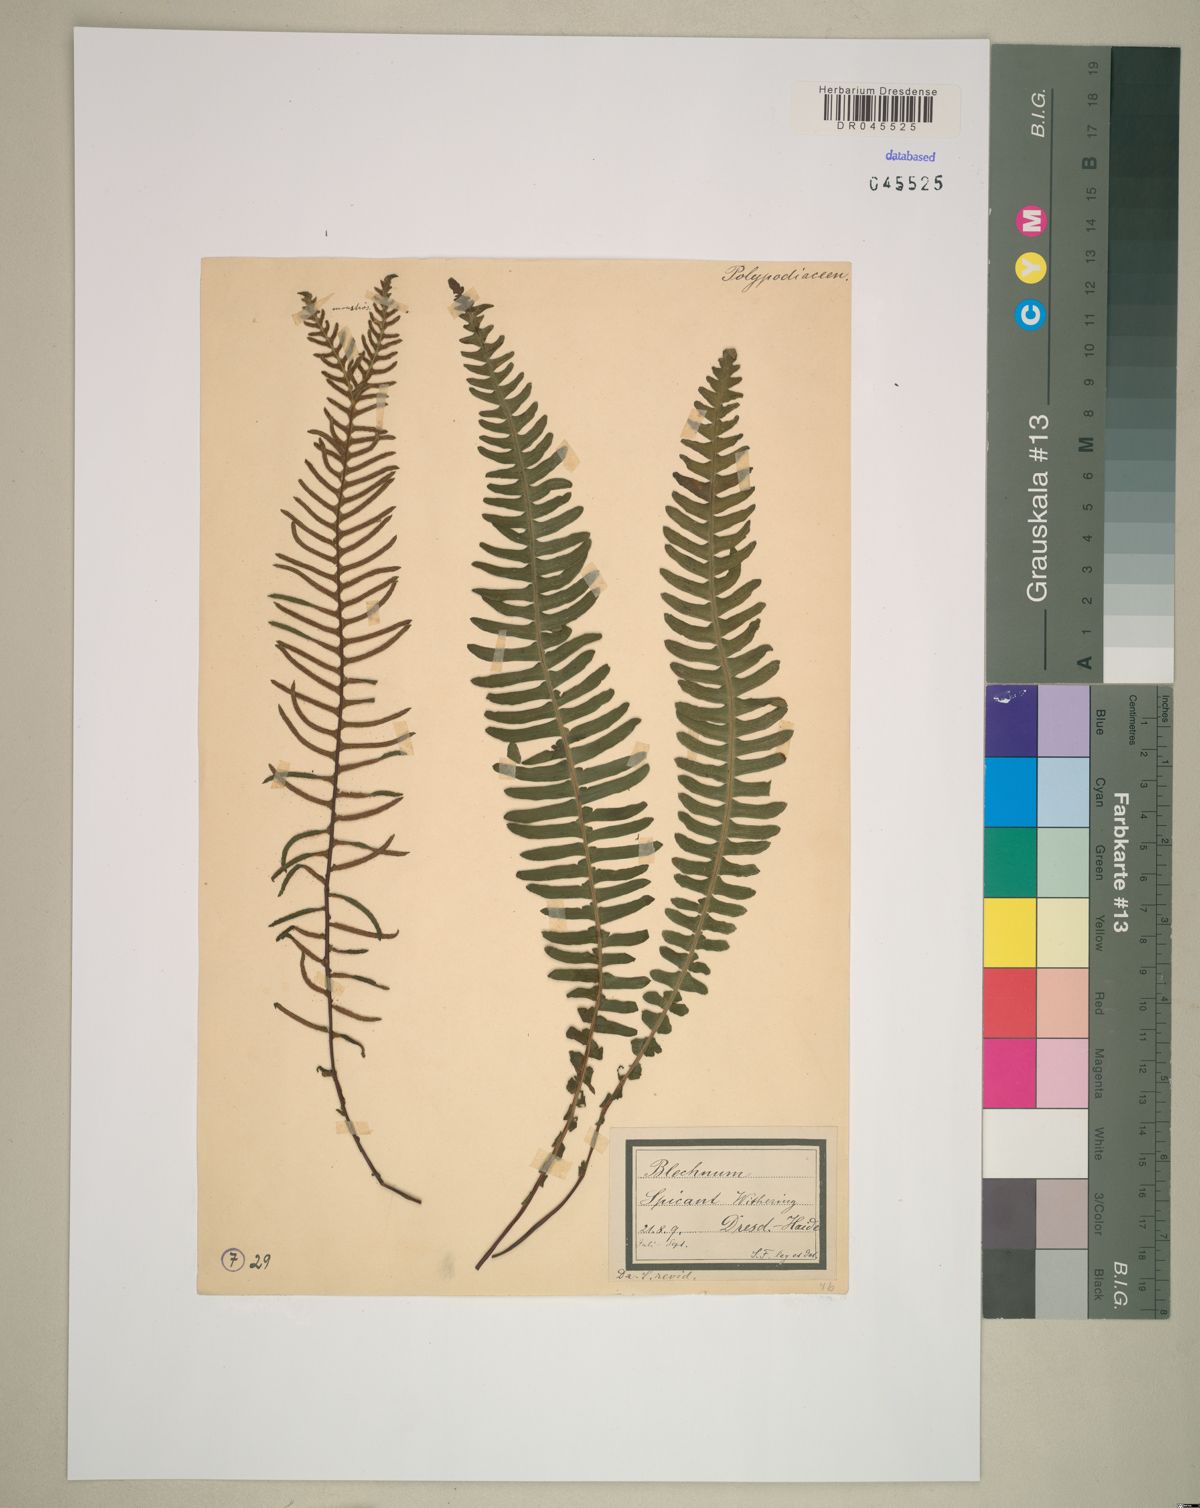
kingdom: Plantae
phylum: Tracheophyta
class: Polypodiopsida
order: Polypodiales
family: Blechnaceae
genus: Struthiopteris
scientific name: Struthiopteris spicant
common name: Deer fern
